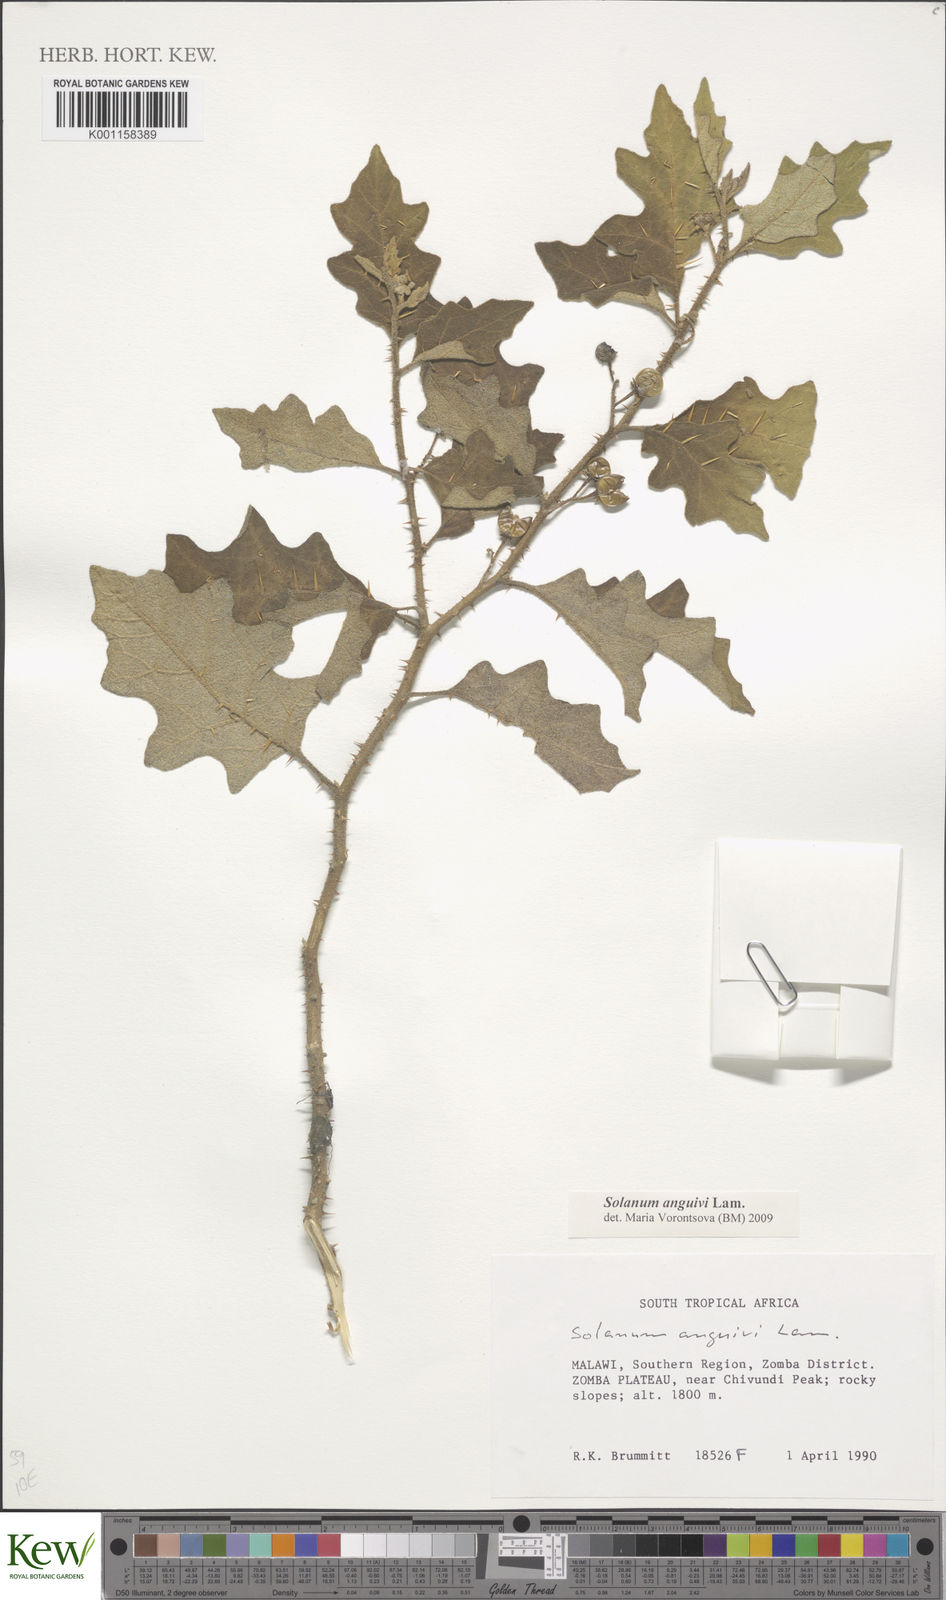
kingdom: Plantae
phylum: Tracheophyta
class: Magnoliopsida
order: Solanales
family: Solanaceae
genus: Solanum
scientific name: Solanum anguivi
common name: Forest bitterberry
